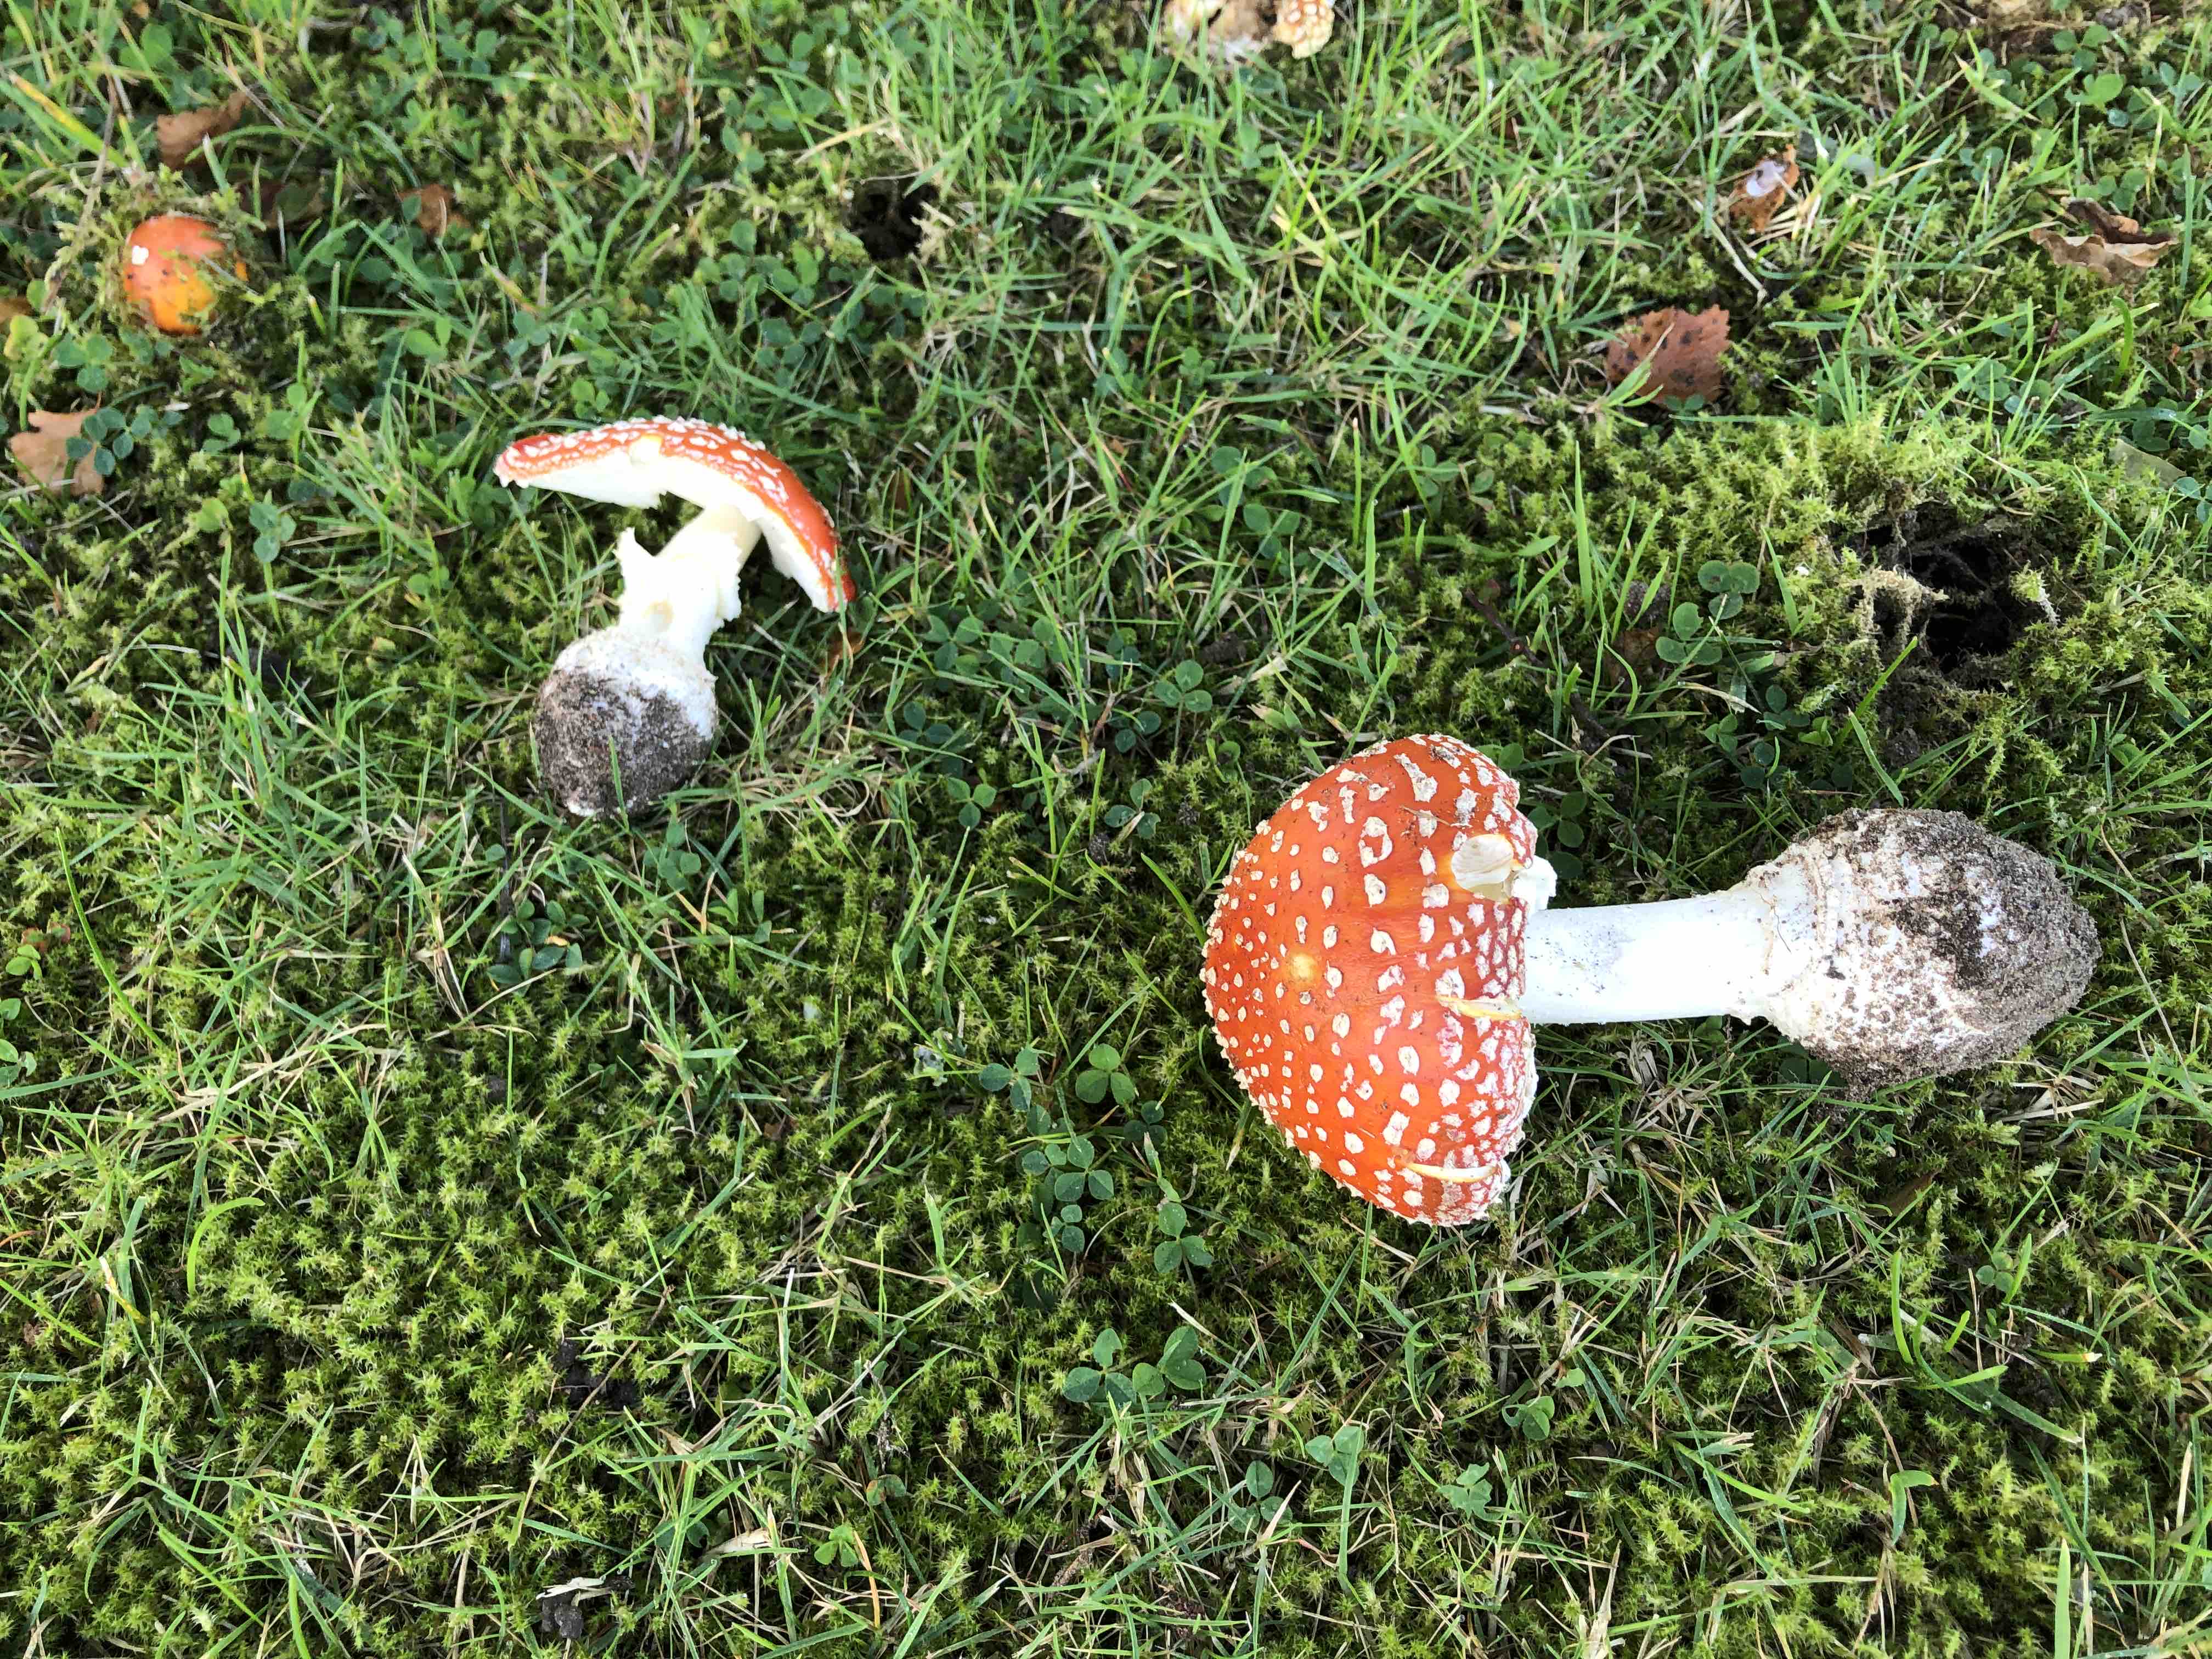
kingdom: Fungi
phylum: Basidiomycota
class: Agaricomycetes
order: Agaricales
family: Amanitaceae
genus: Amanita
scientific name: Amanita muscaria
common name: rød fluesvamp
